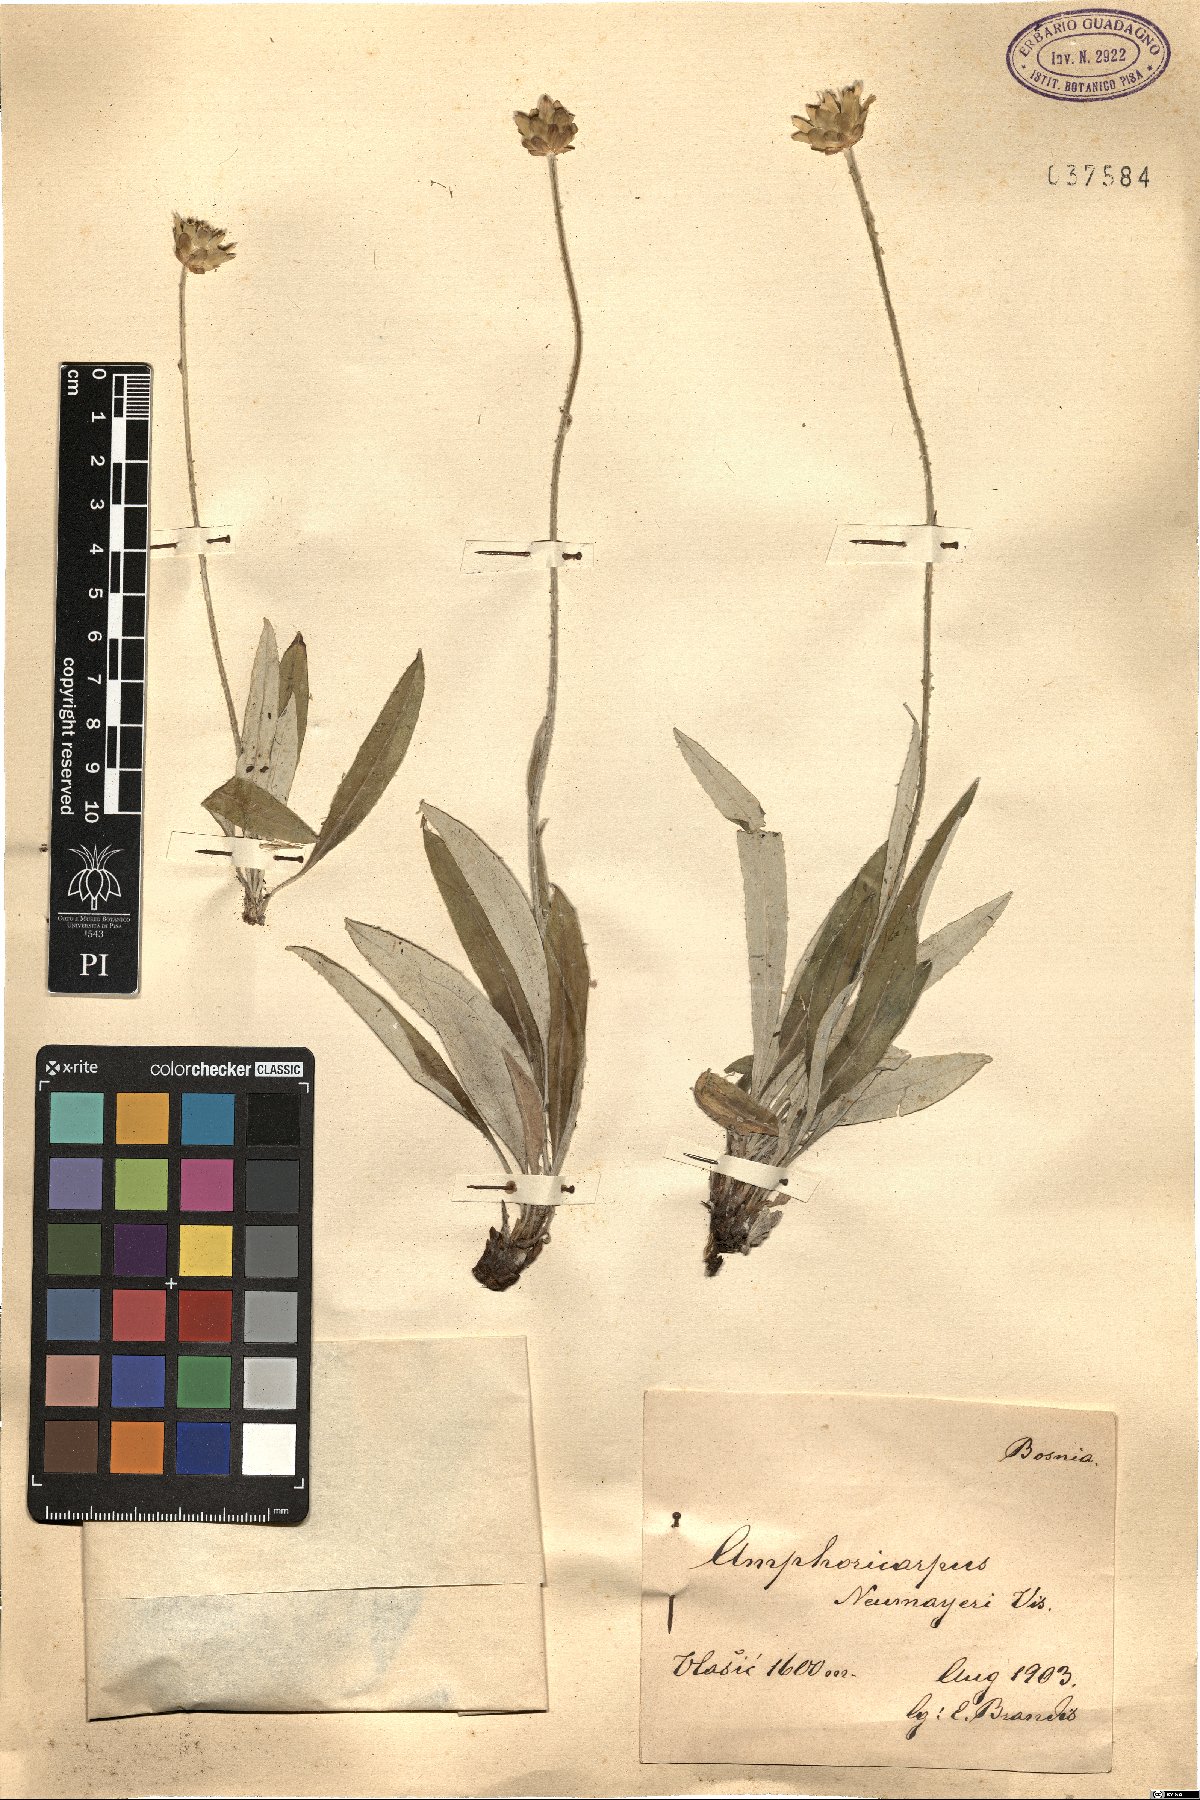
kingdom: Plantae
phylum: Tracheophyta
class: Magnoliopsida
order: Saxifragales
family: Saxifragaceae
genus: Saxifraga
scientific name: Saxifraga marginata
